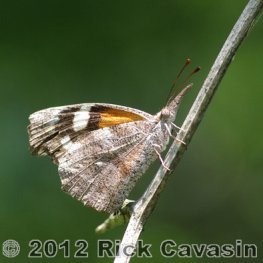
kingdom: Animalia
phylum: Arthropoda
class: Insecta
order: Lepidoptera
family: Nymphalidae
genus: Libytheana
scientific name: Libytheana carinenta
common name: American Snout
